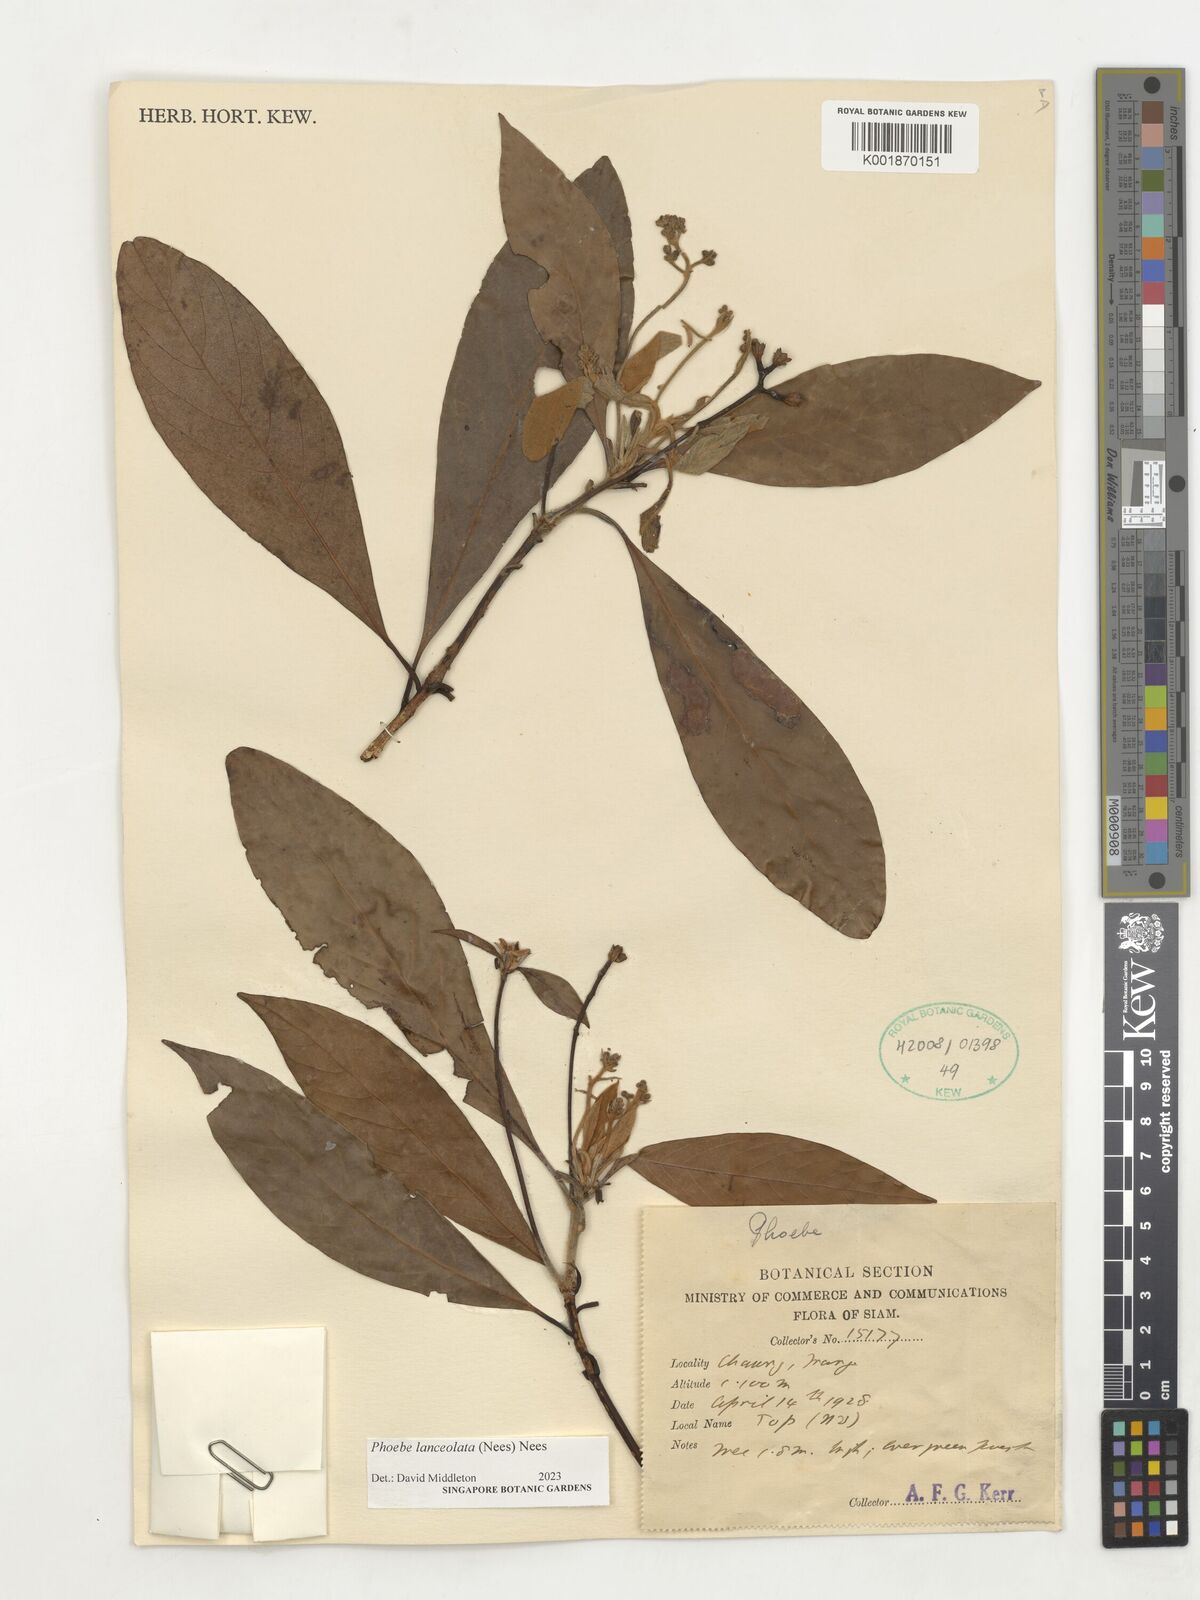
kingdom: Plantae
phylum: Tracheophyta
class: Magnoliopsida
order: Laurales
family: Lauraceae
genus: Phoebe
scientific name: Phoebe lanceolata
